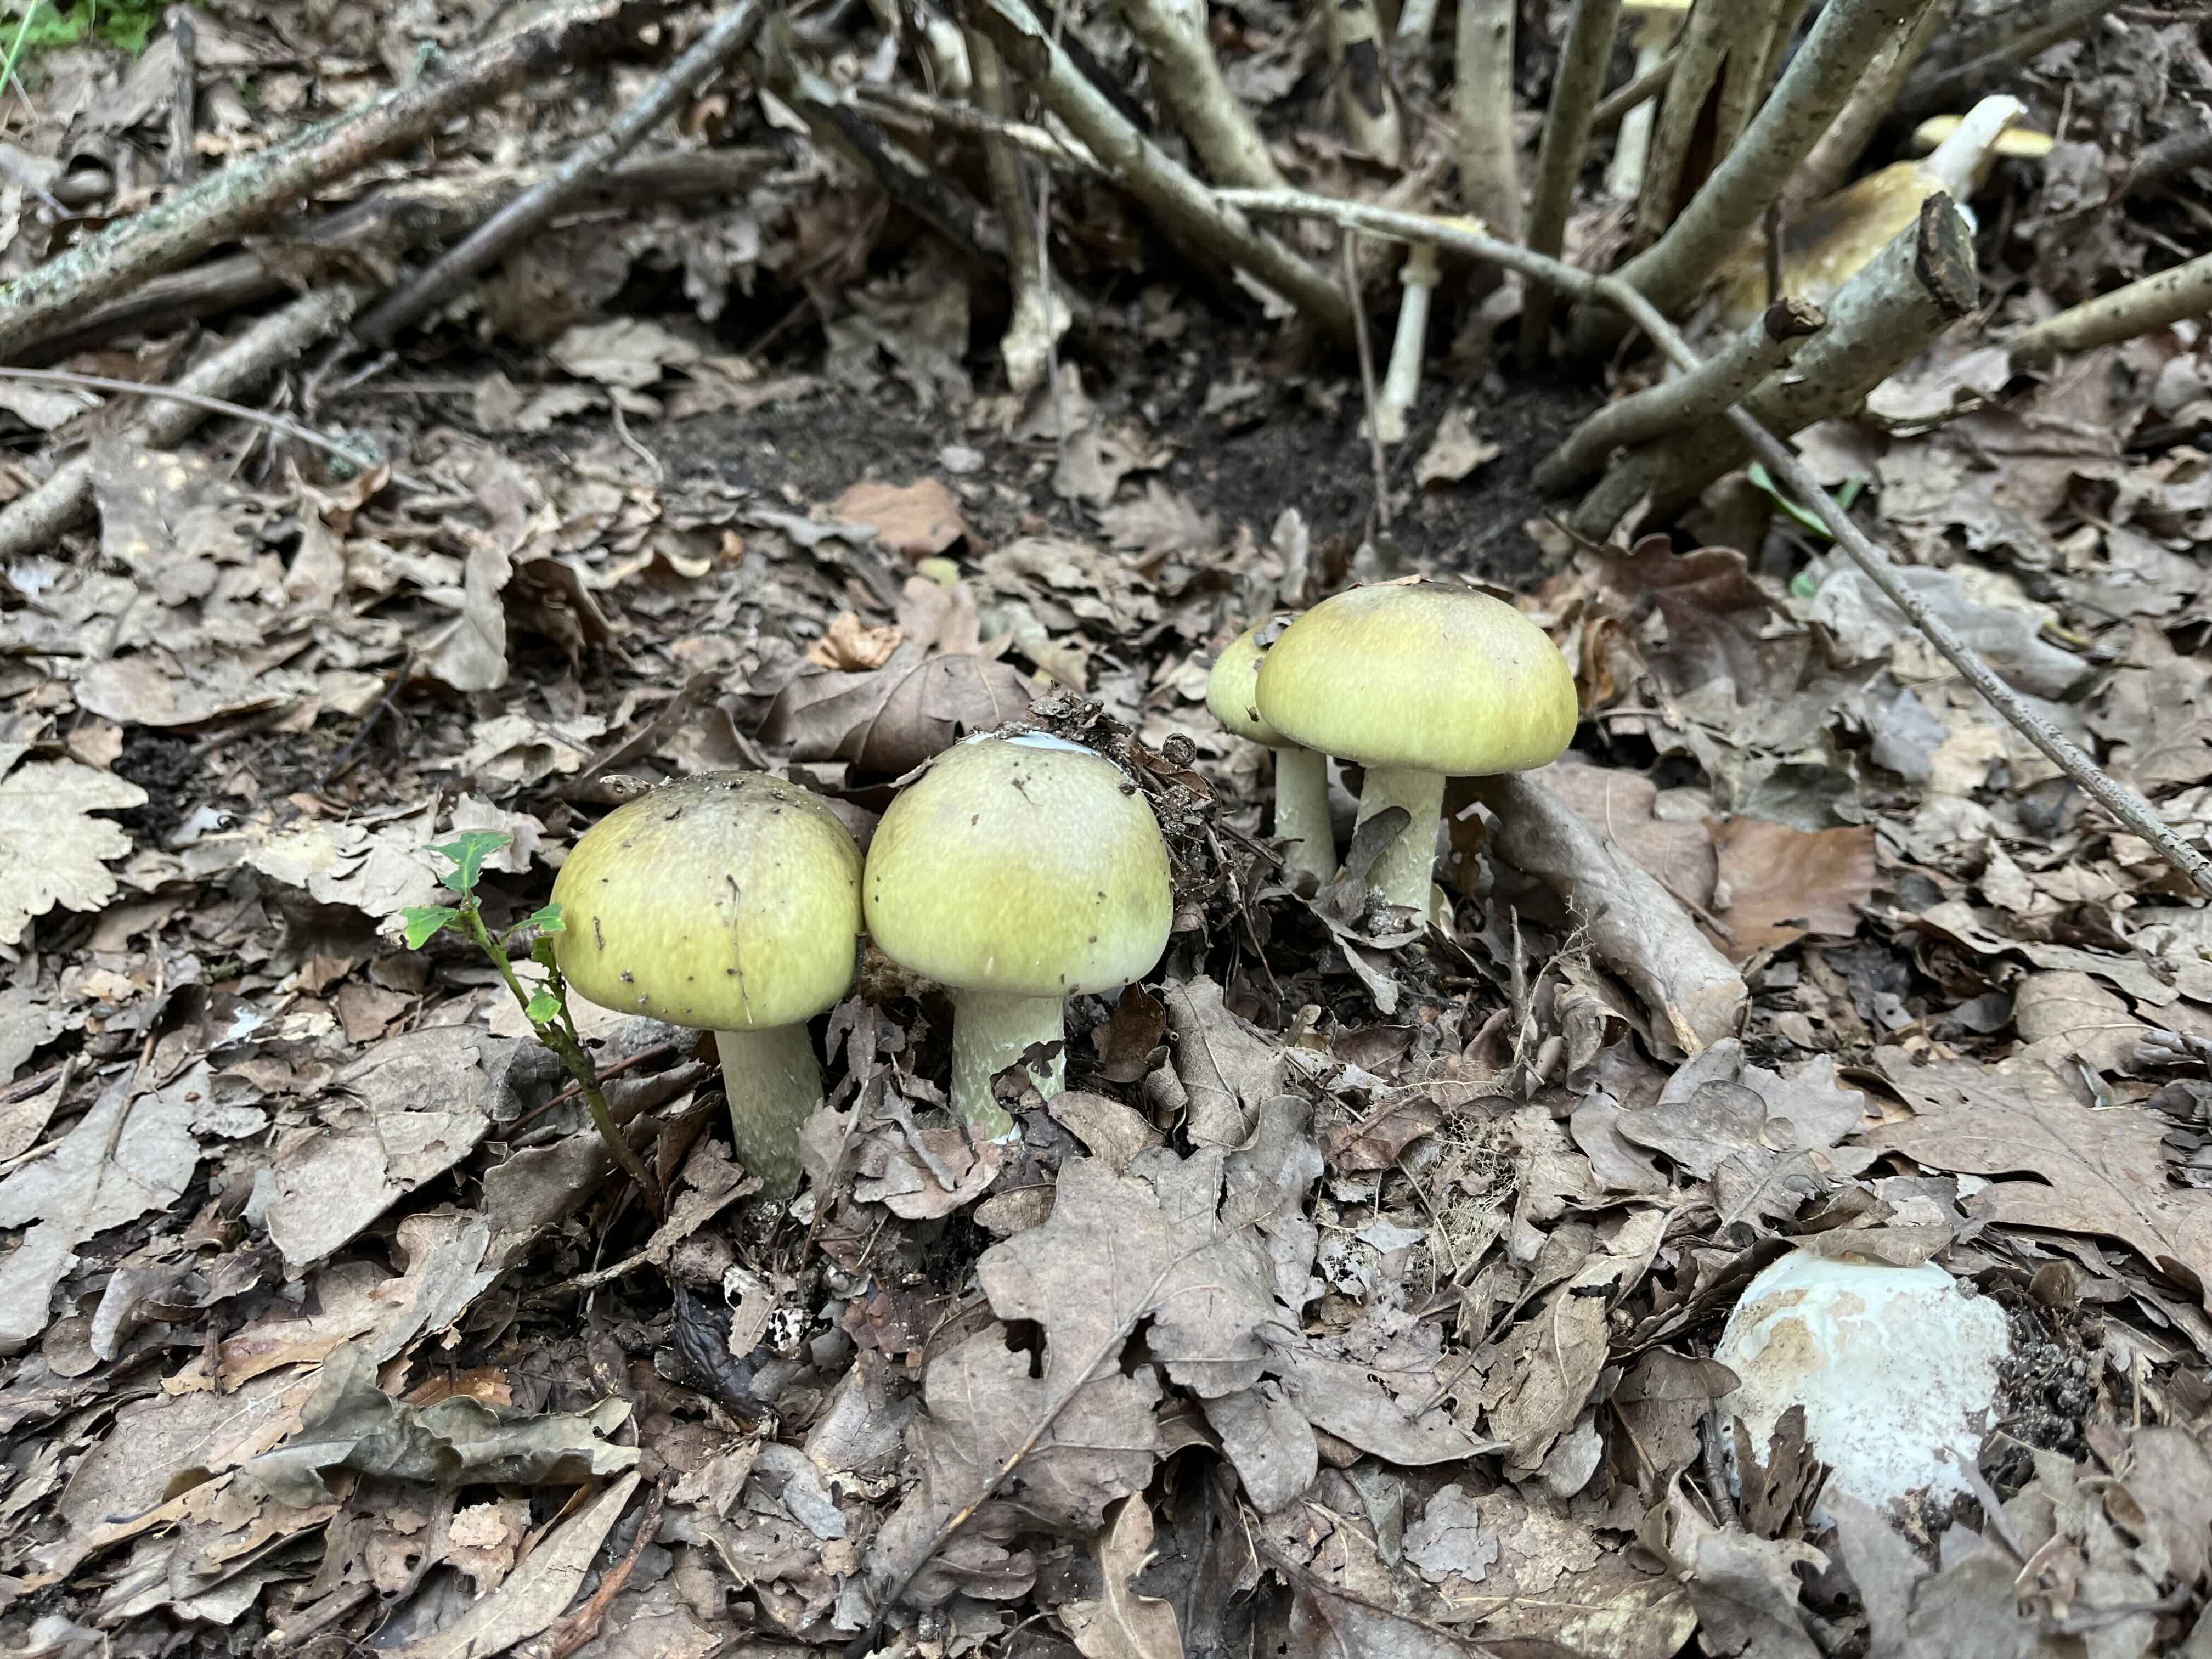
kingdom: Fungi
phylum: Basidiomycota
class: Agaricomycetes
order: Agaricales
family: Amanitaceae
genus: Amanita
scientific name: Amanita phalloides
